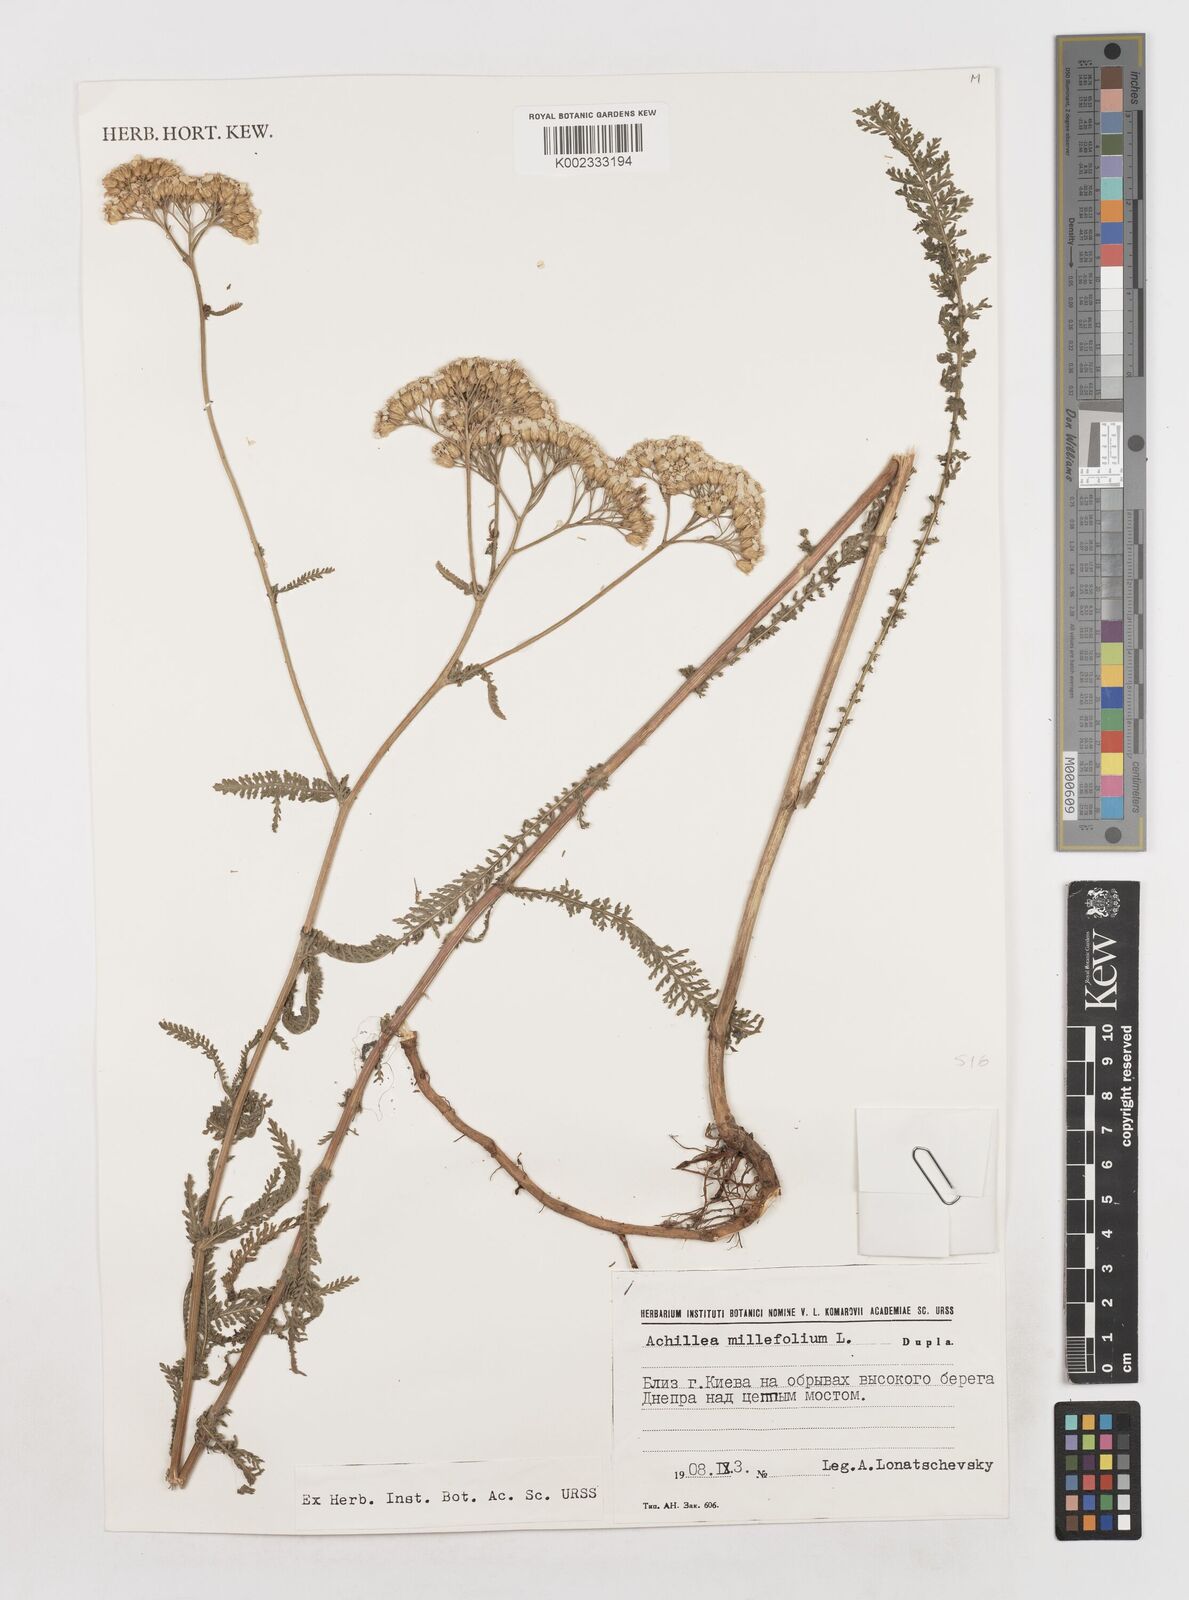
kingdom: Plantae
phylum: Tracheophyta
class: Magnoliopsida
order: Asterales
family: Asteraceae
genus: Achillea
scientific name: Achillea millefolium
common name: Yarrow
